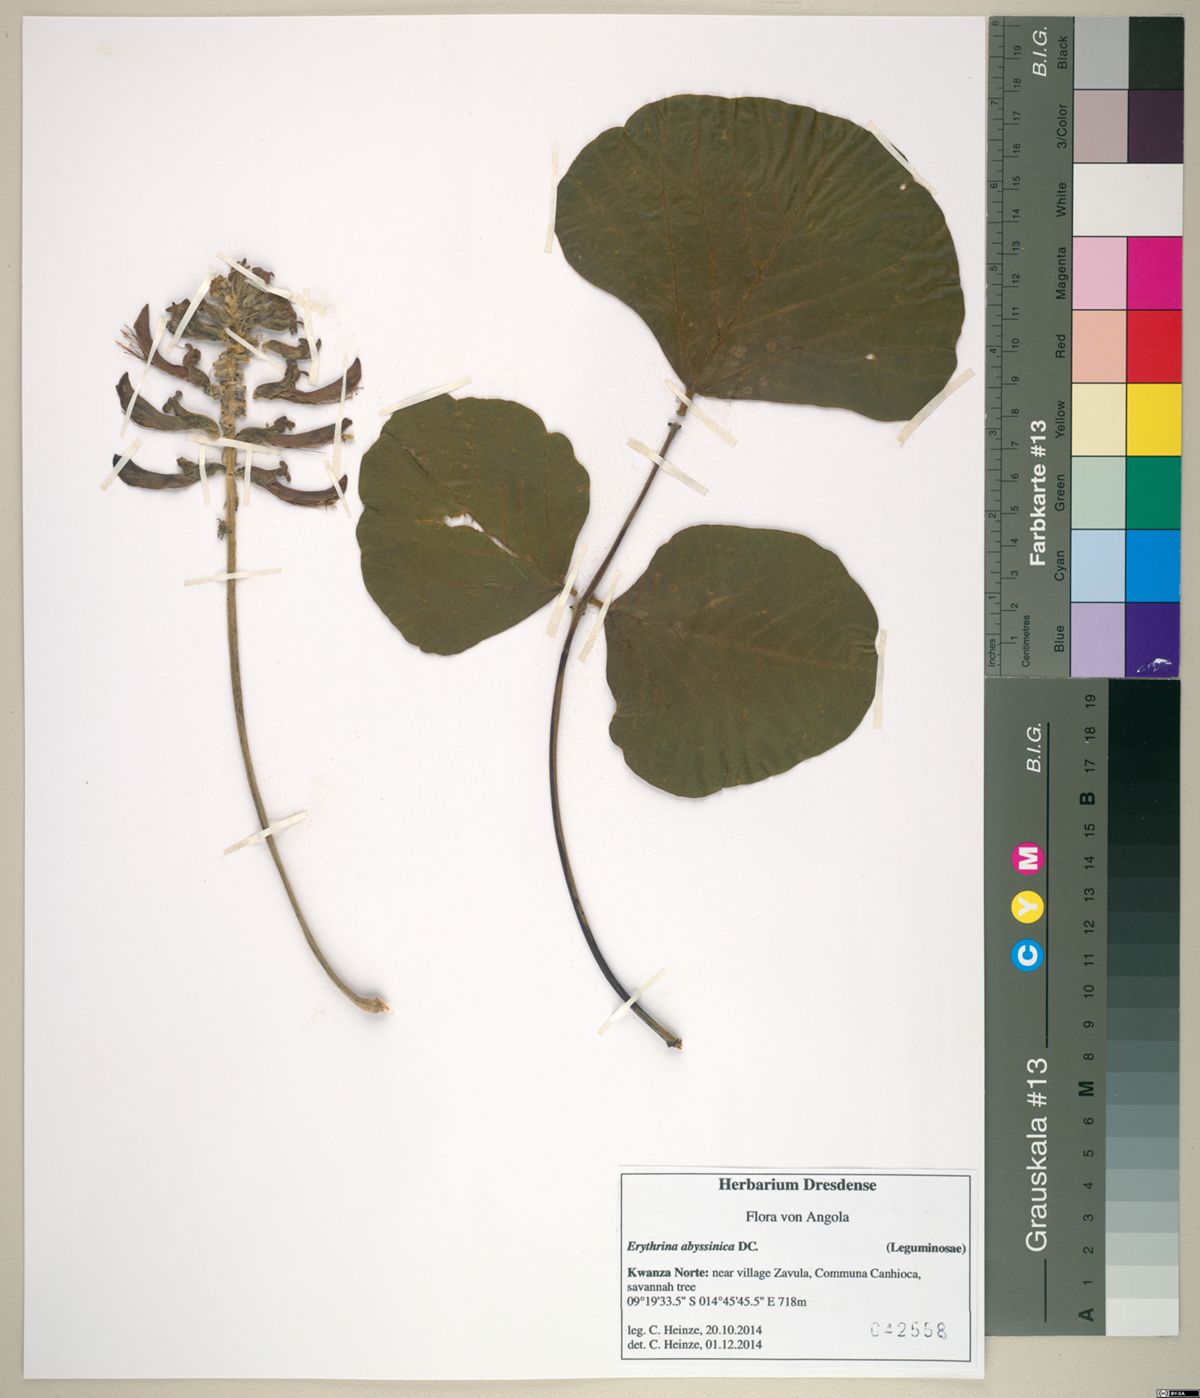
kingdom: Plantae
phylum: Tracheophyta
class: Magnoliopsida
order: Fabales
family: Fabaceae
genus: Erythrina
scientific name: Erythrina abyssinica
